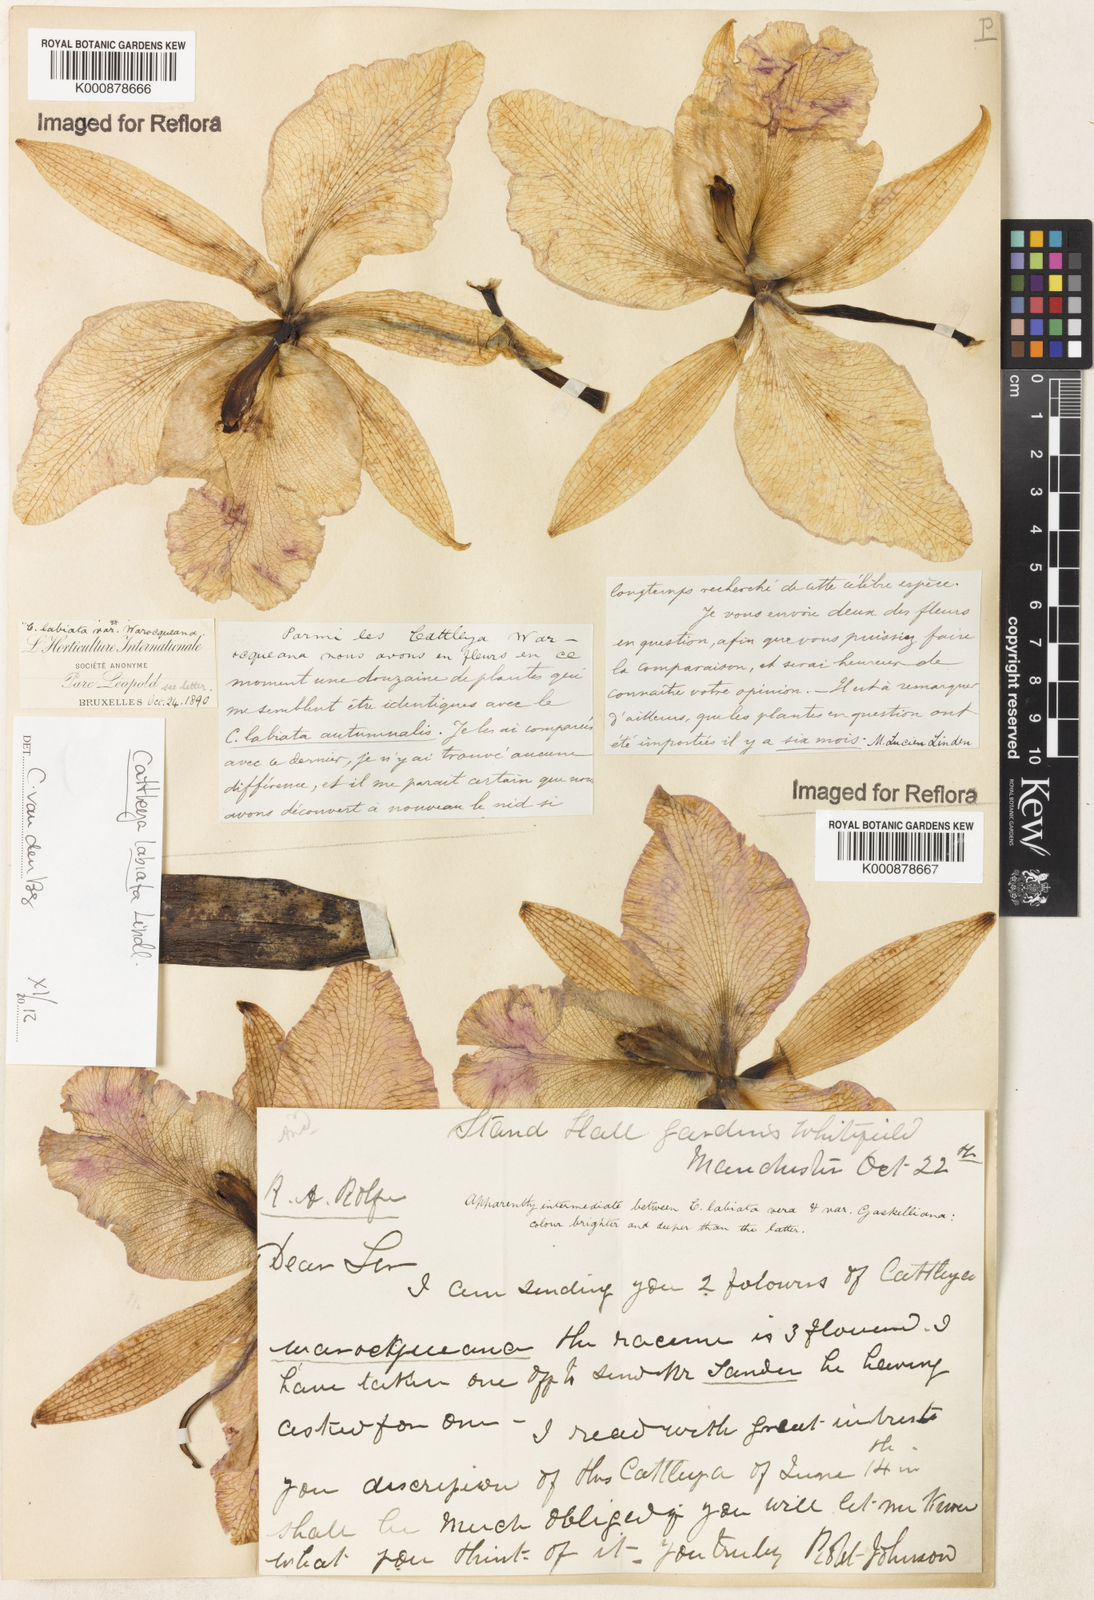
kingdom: Plantae
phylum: Tracheophyta
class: Liliopsida
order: Asparagales
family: Orchidaceae
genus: Cattleya
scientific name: Cattleya labiata
